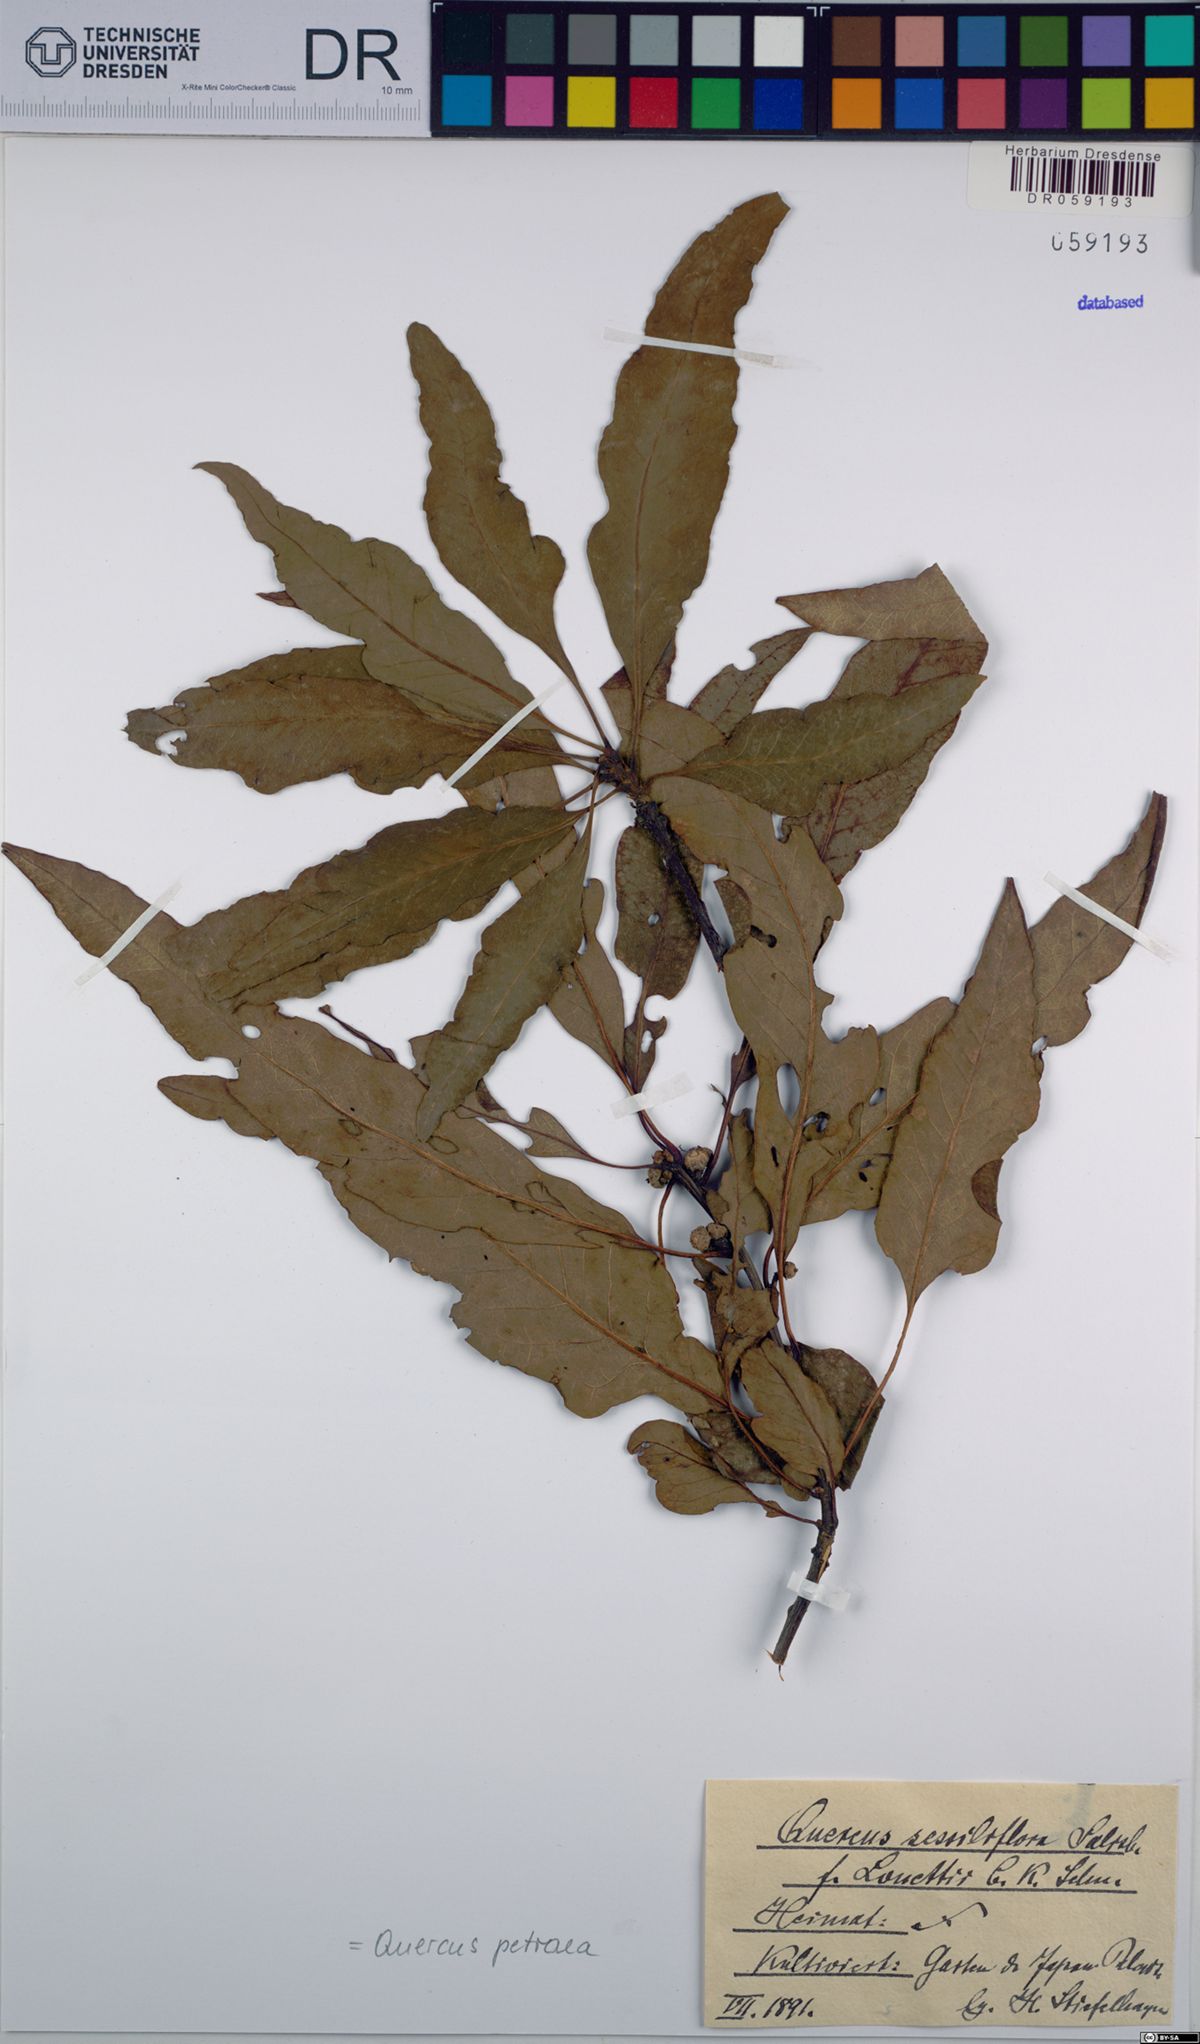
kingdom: Plantae
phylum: Tracheophyta
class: Magnoliopsida
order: Fagales
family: Fagaceae
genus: Quercus
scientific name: Quercus petraea
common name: Sessile oak
